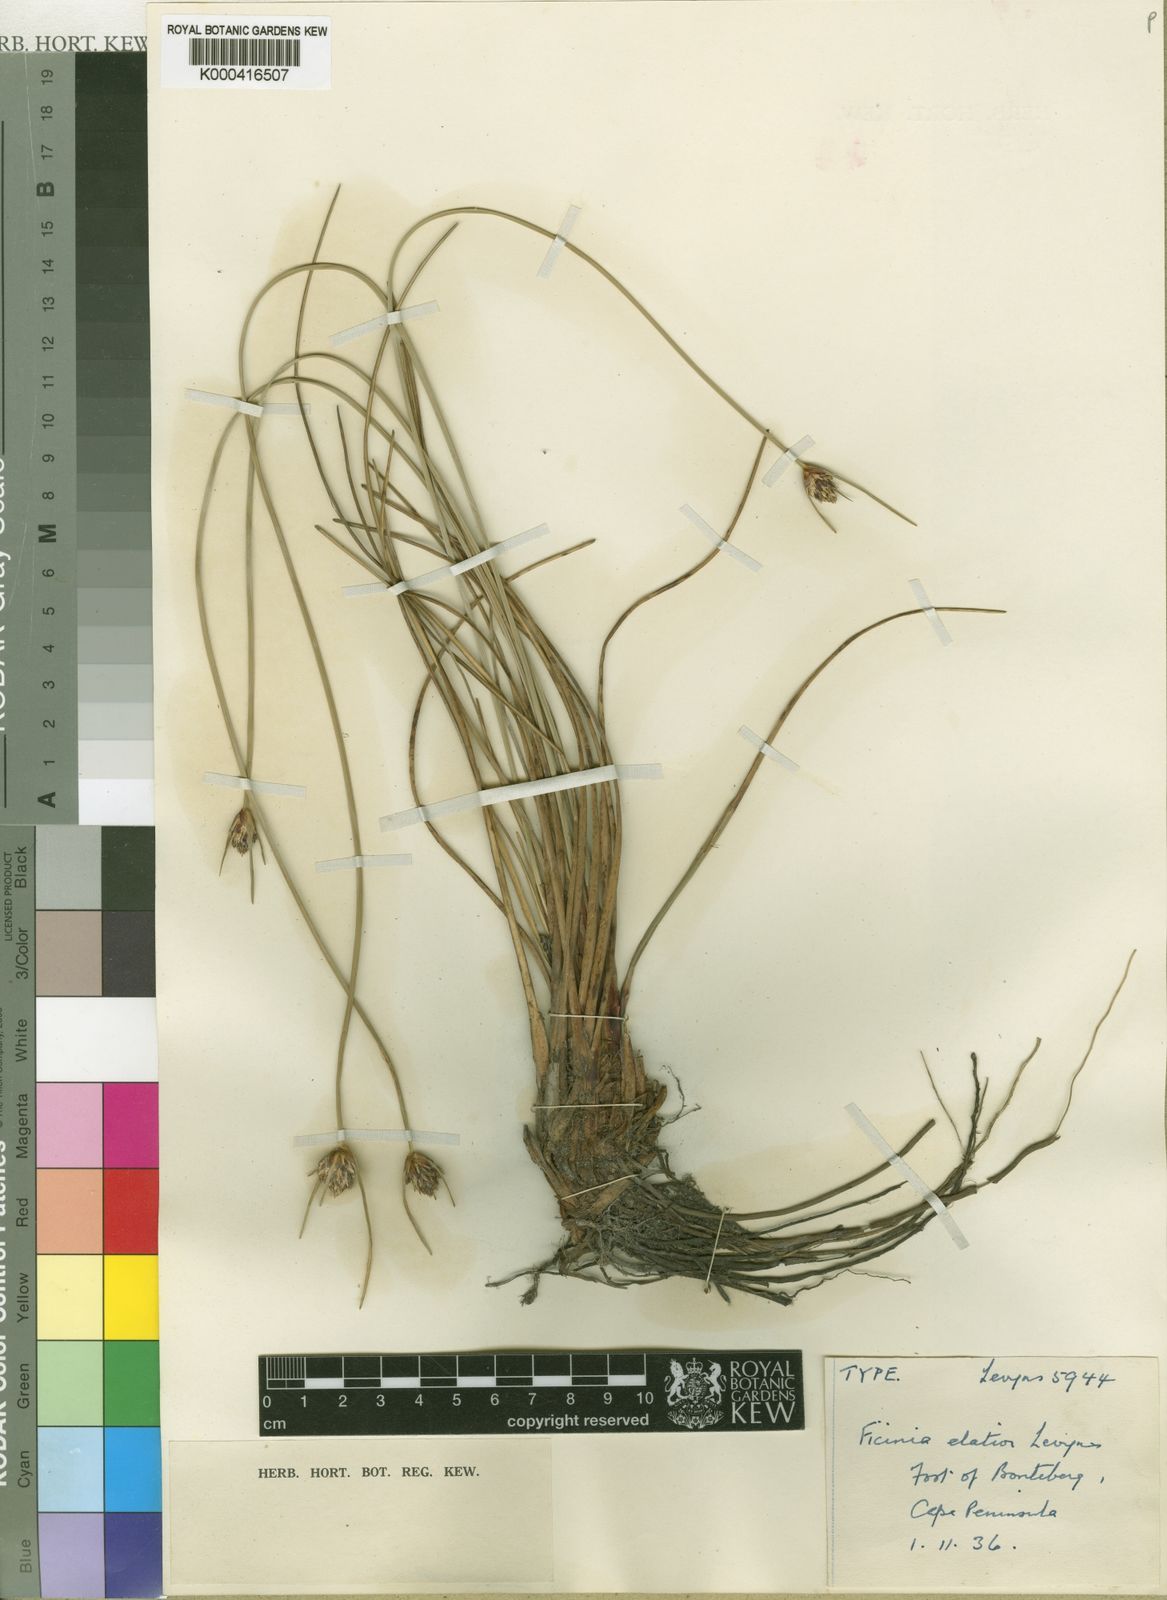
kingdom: Plantae
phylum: Tracheophyta
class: Liliopsida
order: Poales
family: Cyperaceae
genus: Ficinia
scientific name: Ficinia elatior
